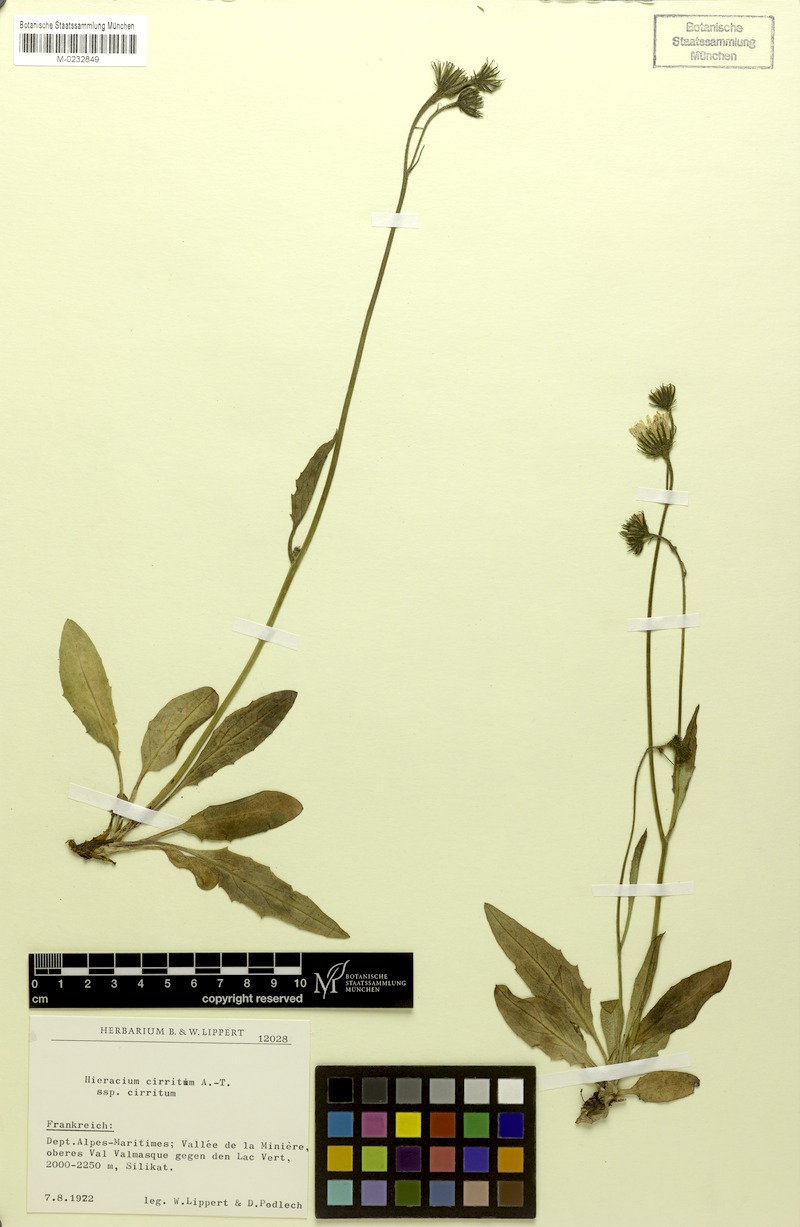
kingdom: Plantae
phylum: Tracheophyta
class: Magnoliopsida
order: Asterales
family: Asteraceae
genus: Hieracium
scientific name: Hieracium cirritum
